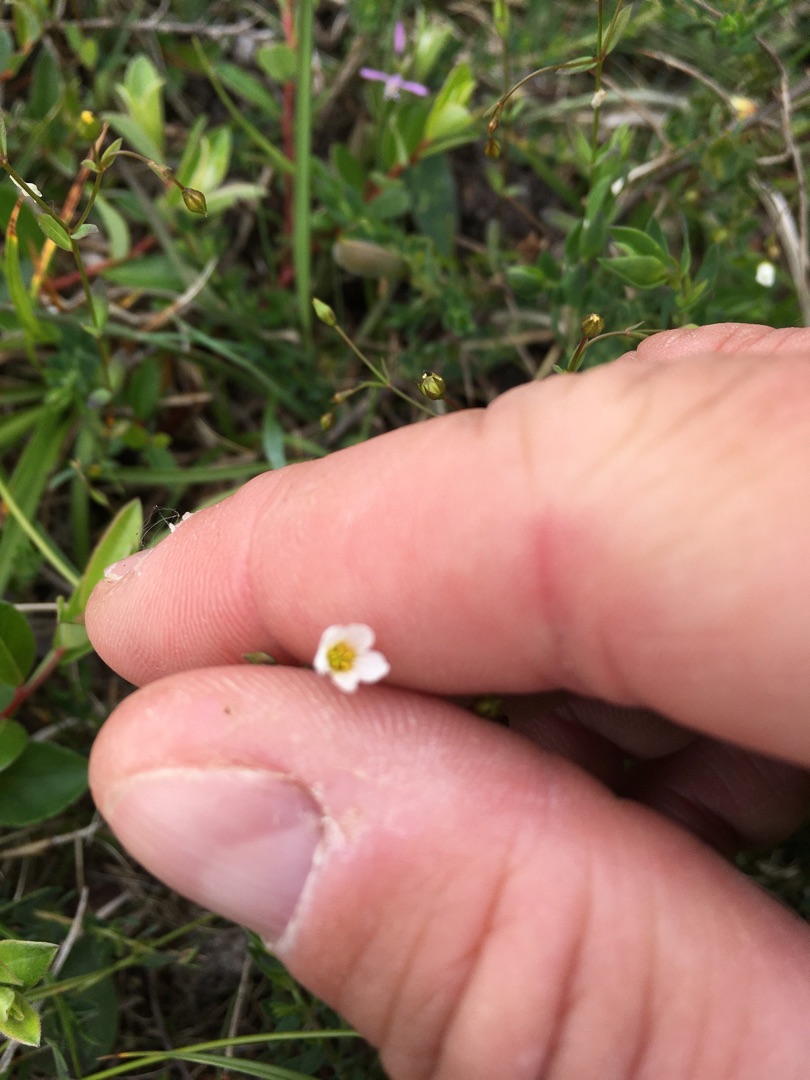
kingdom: Plantae
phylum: Tracheophyta
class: Magnoliopsida
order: Malpighiales
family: Linaceae
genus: Linum
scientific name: Linum catharticum
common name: Vild hør
